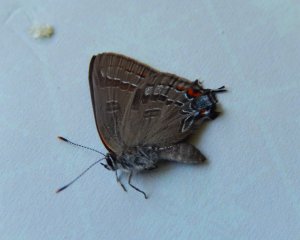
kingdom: Animalia
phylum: Arthropoda
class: Insecta
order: Lepidoptera
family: Lycaenidae
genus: Strymon
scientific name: Strymon caryaevorus
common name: Hickory Hairstreak
